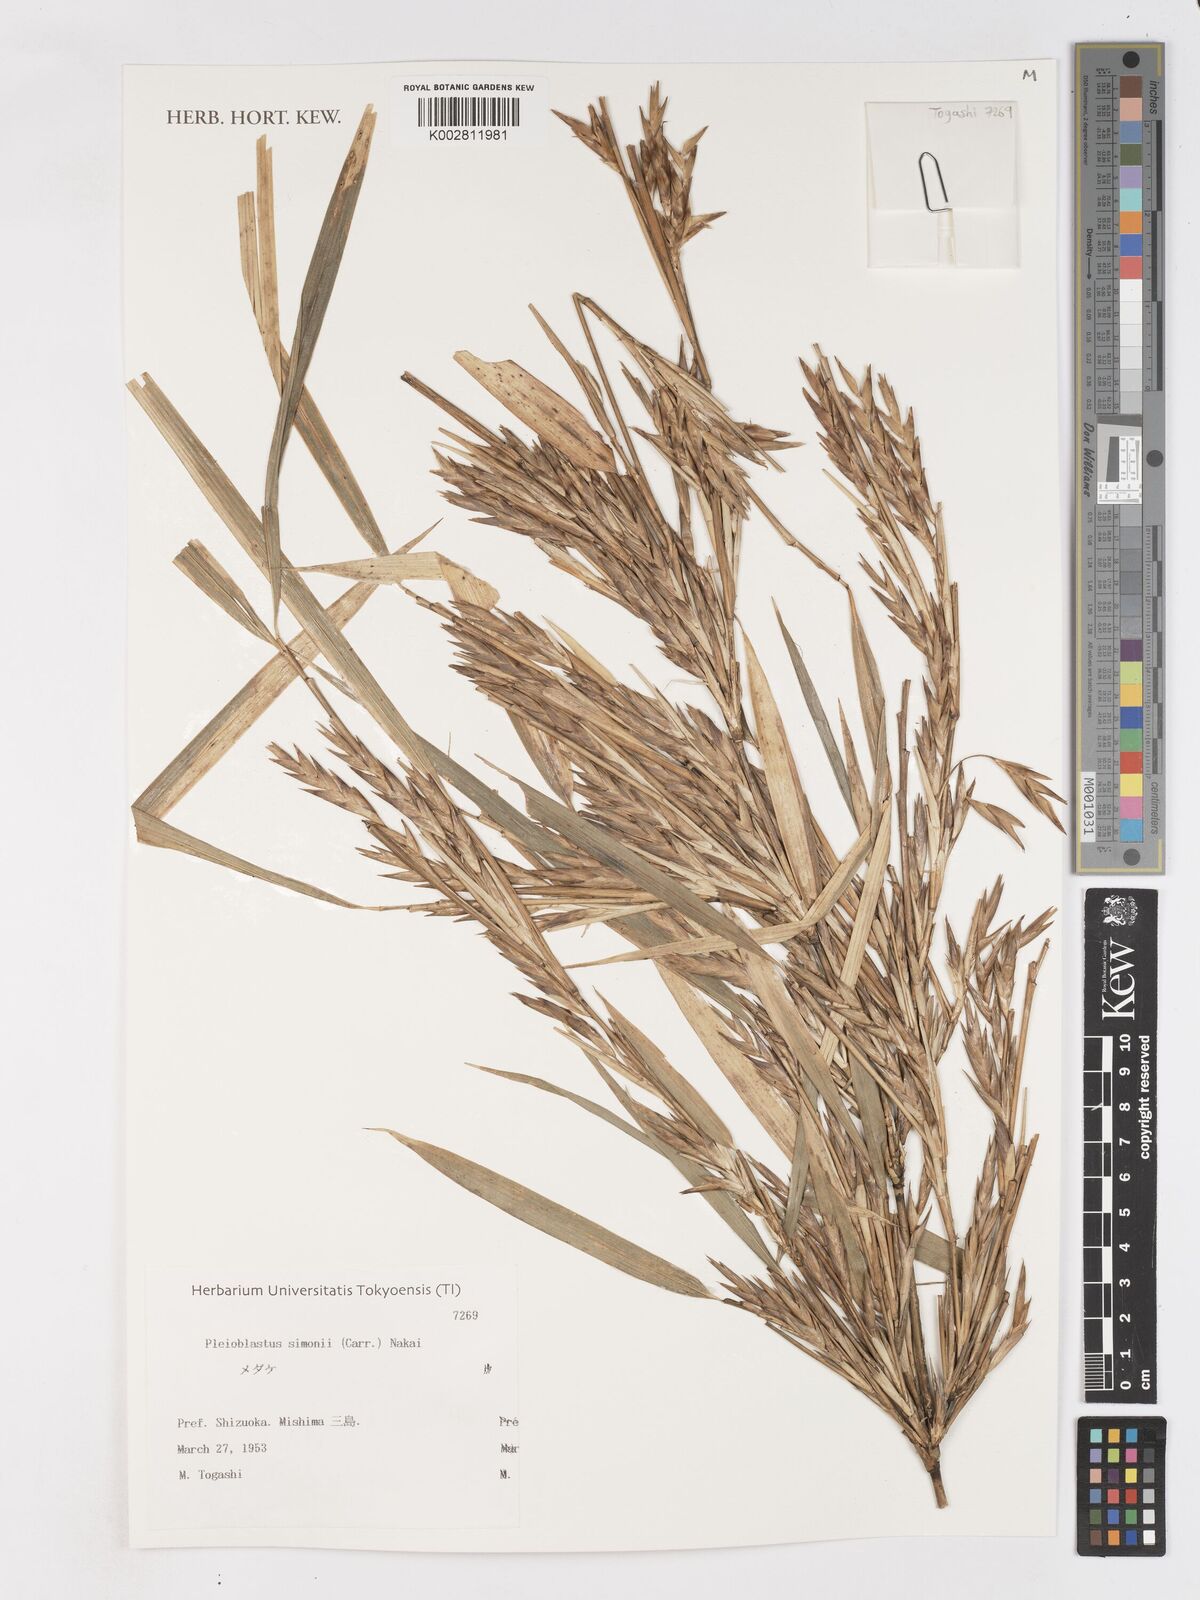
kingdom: Plantae
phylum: Tracheophyta
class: Liliopsida
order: Poales
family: Poaceae
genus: Pleioblastus
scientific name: Pleioblastus simonii
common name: Simon bamboo
